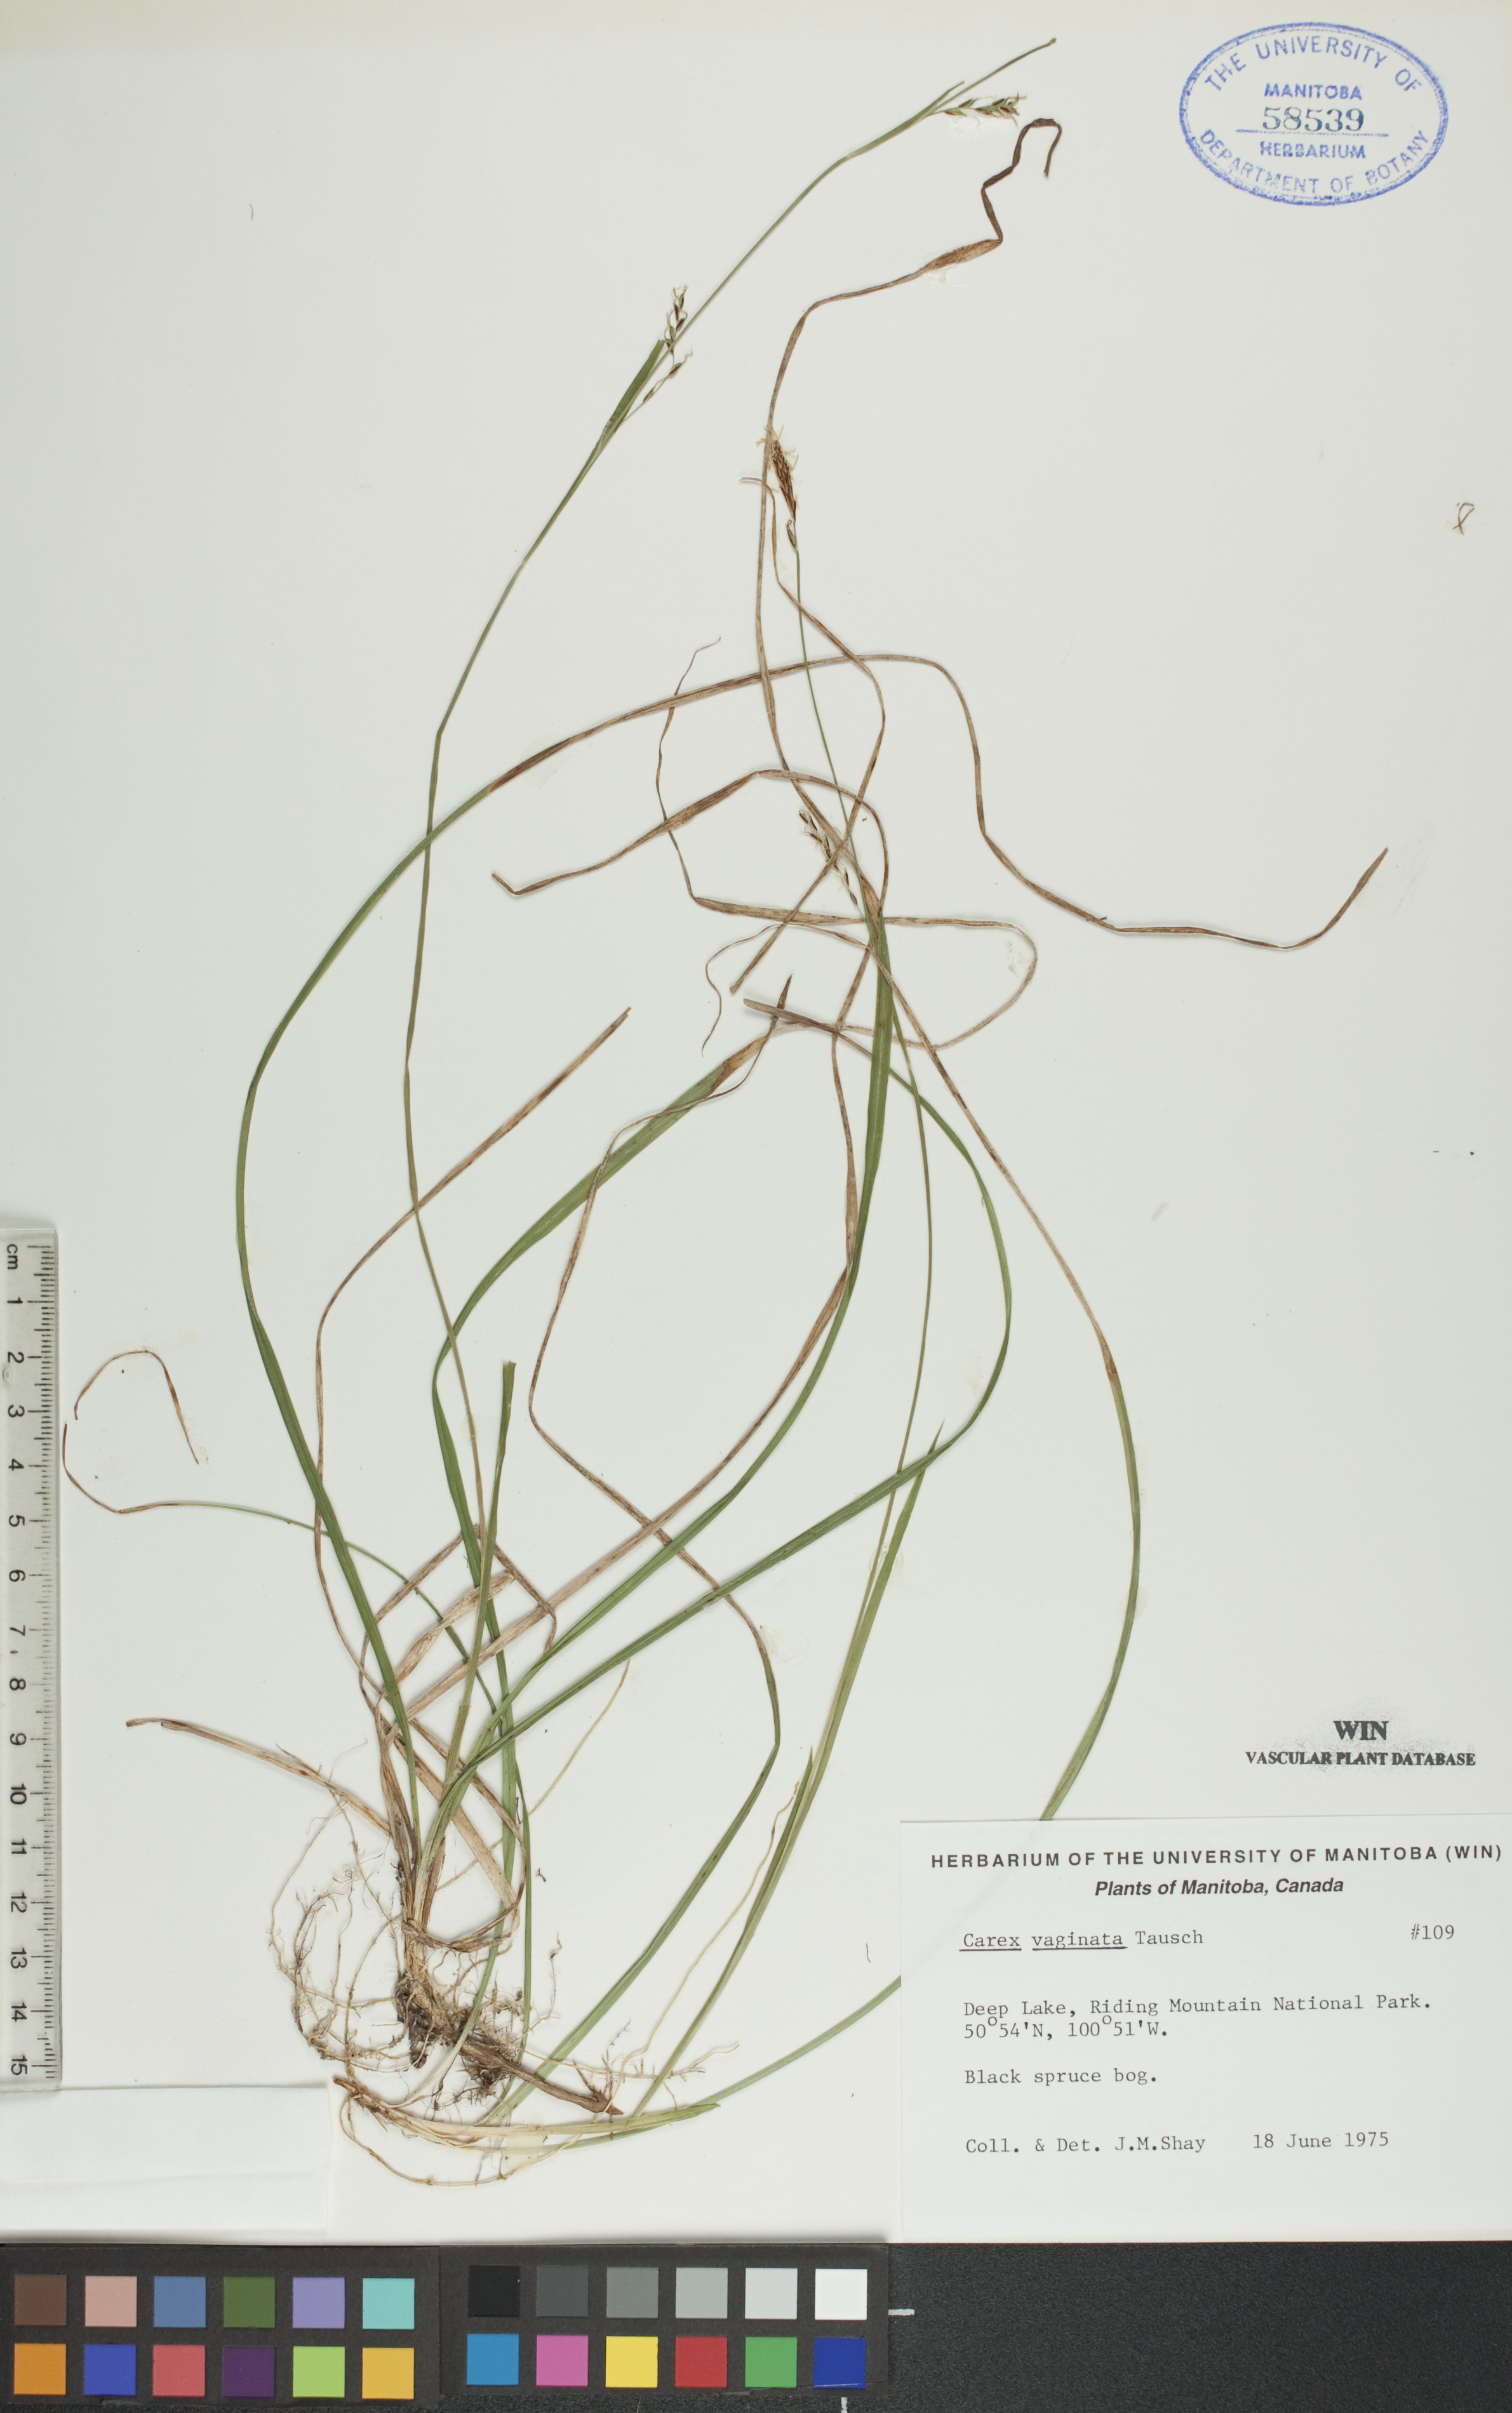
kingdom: Plantae
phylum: Tracheophyta
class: Liliopsida
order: Poales
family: Cyperaceae
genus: Carex
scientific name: Carex vaginata
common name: Sheathed sedge
